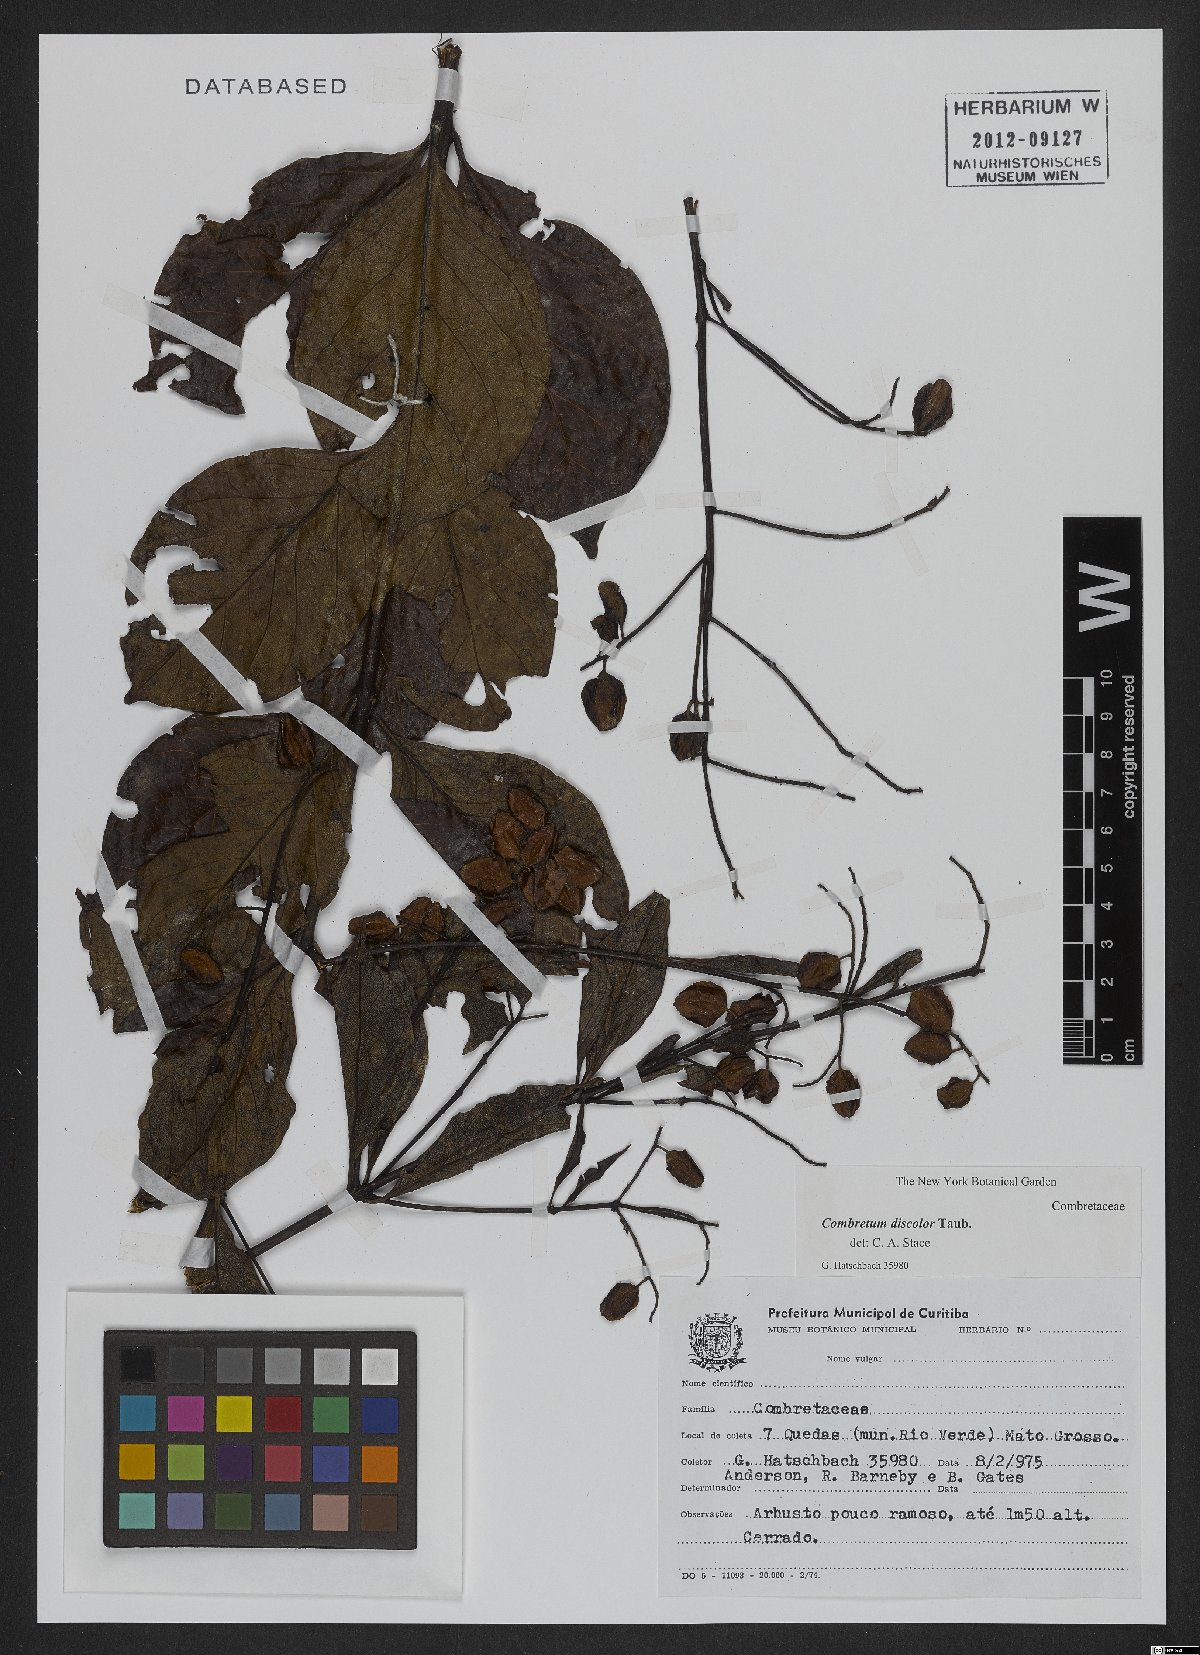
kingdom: Plantae
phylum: Tracheophyta
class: Magnoliopsida
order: Myrtales
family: Combretaceae
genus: Combretum
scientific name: Combretum discolor
